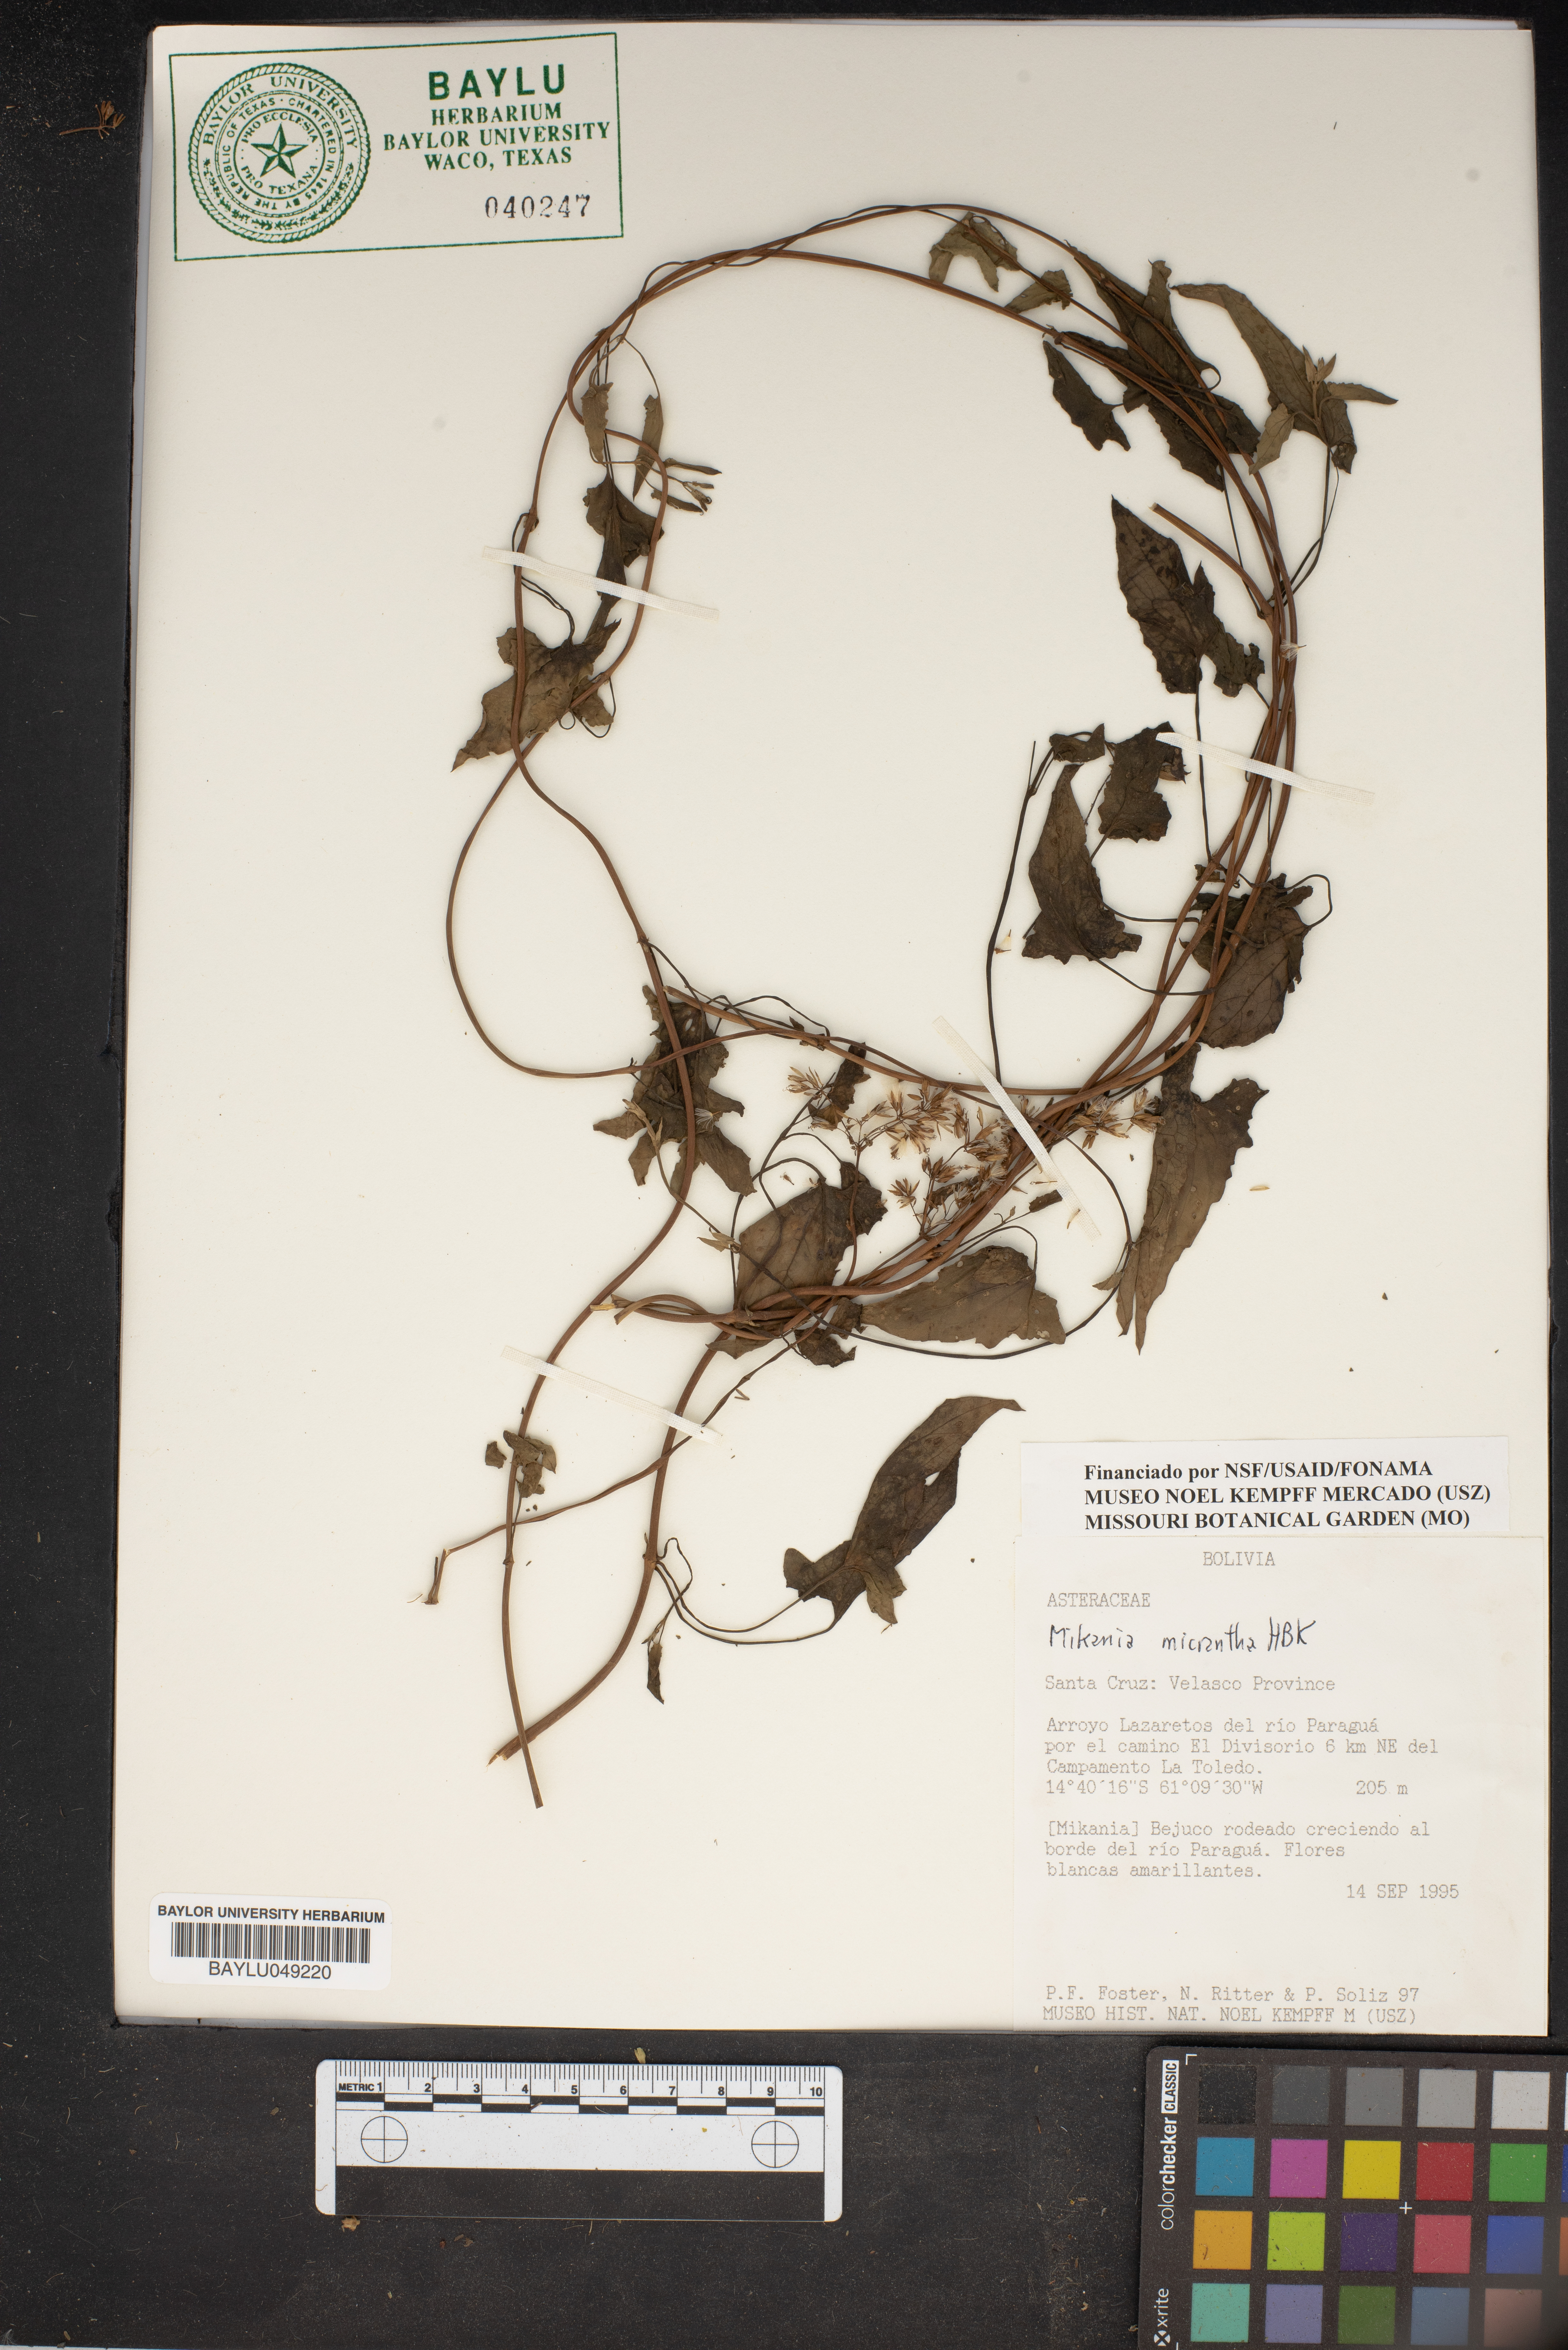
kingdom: Plantae
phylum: Tracheophyta
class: Magnoliopsida
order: Asterales
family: Asteraceae
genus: Mikania
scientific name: Mikania micrantha
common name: Mile-a-minute
